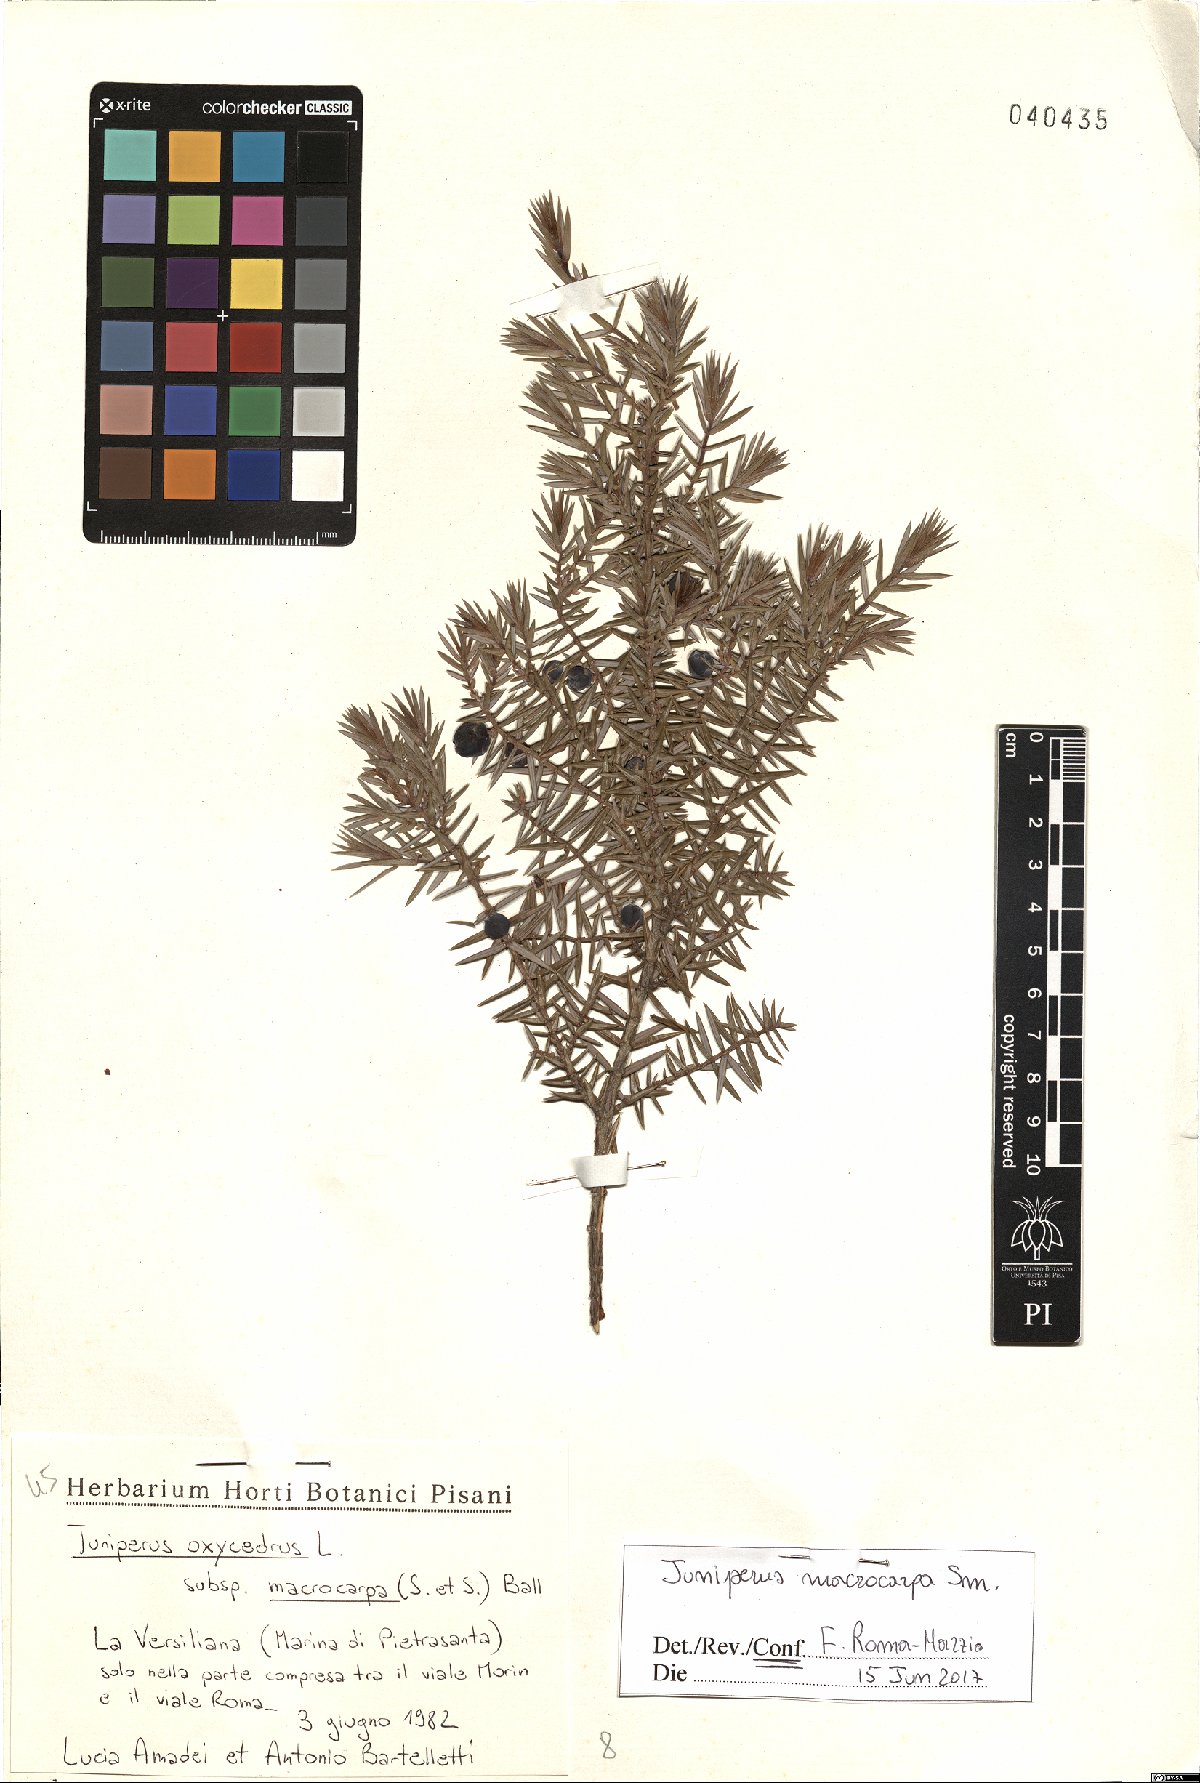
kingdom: Plantae
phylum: Tracheophyta
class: Pinopsida
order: Pinales
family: Cupressaceae
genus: Juniperus
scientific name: Juniperus oxycedrus
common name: Prickly juniper
